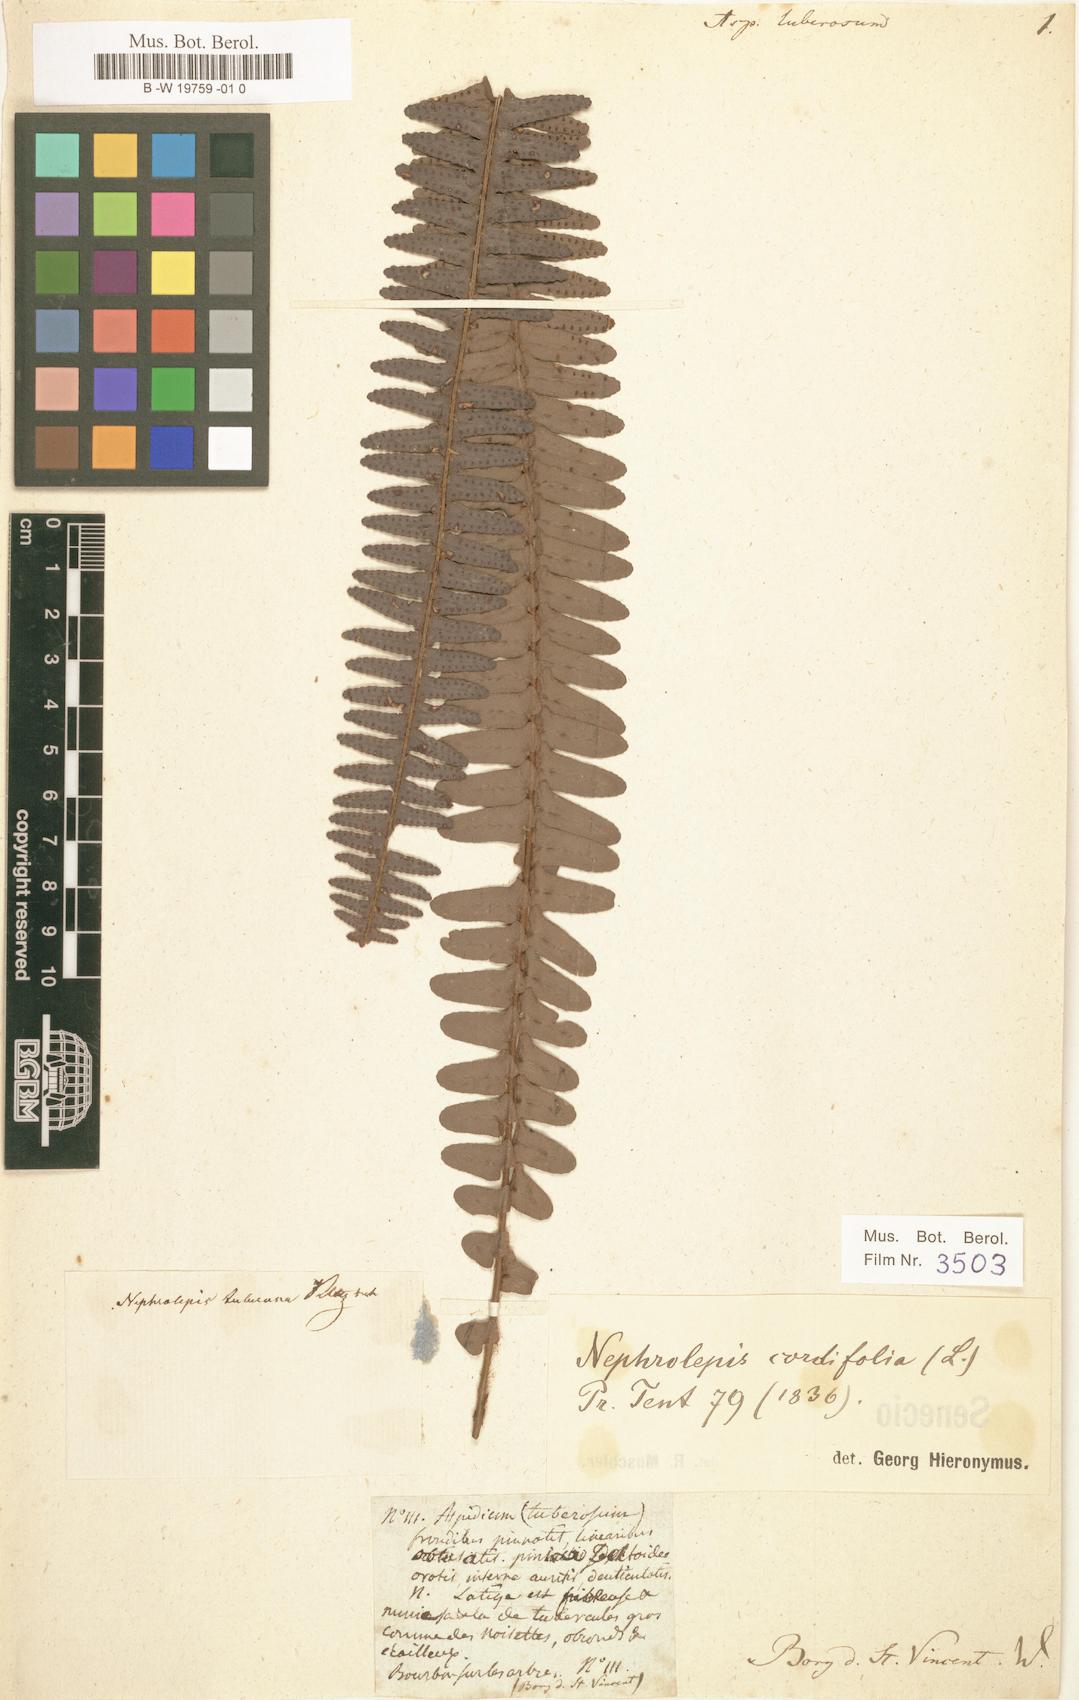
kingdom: Plantae
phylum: Tracheophyta
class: Polypodiopsida
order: Polypodiales
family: Nephrolepidaceae
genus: Nephrolepis
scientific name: Nephrolepis cordifolia
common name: Narrow swordfern
